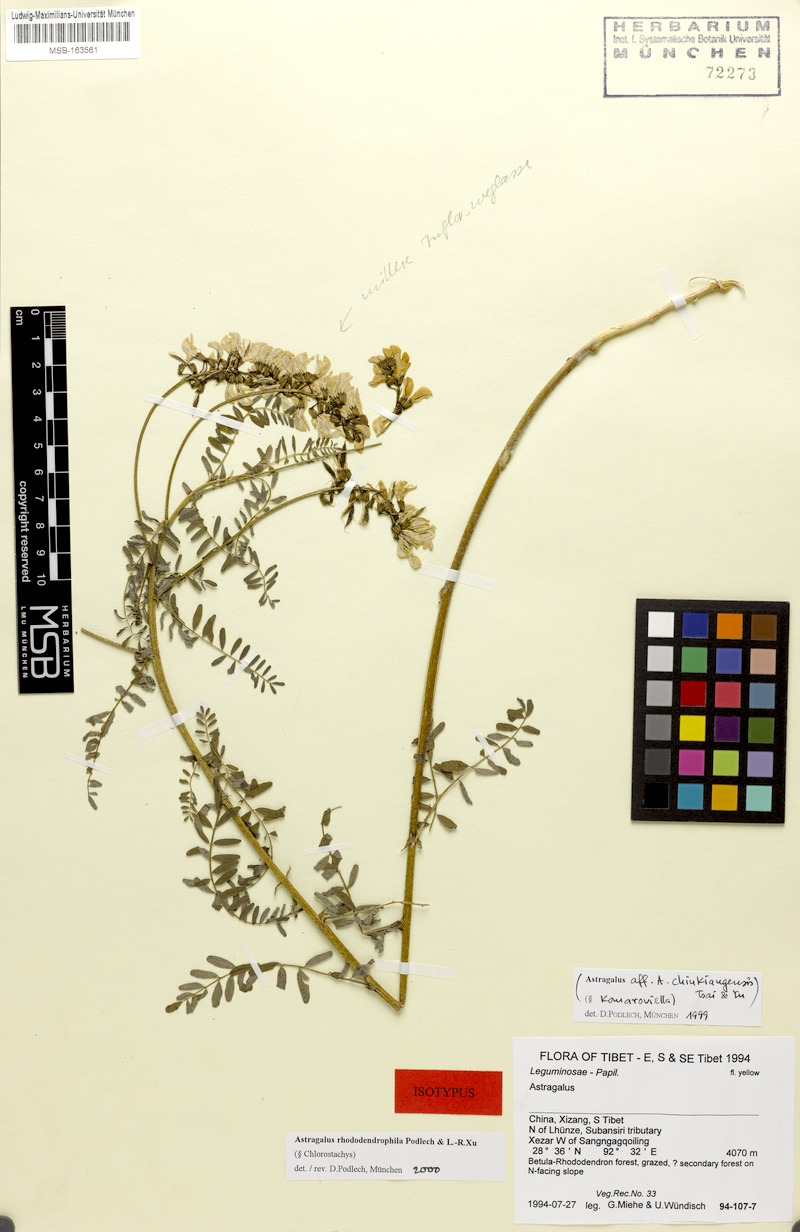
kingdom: Plantae
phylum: Tracheophyta
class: Magnoliopsida
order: Fabales
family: Fabaceae
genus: Astragalus
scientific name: Astragalus rhododendrophilus
